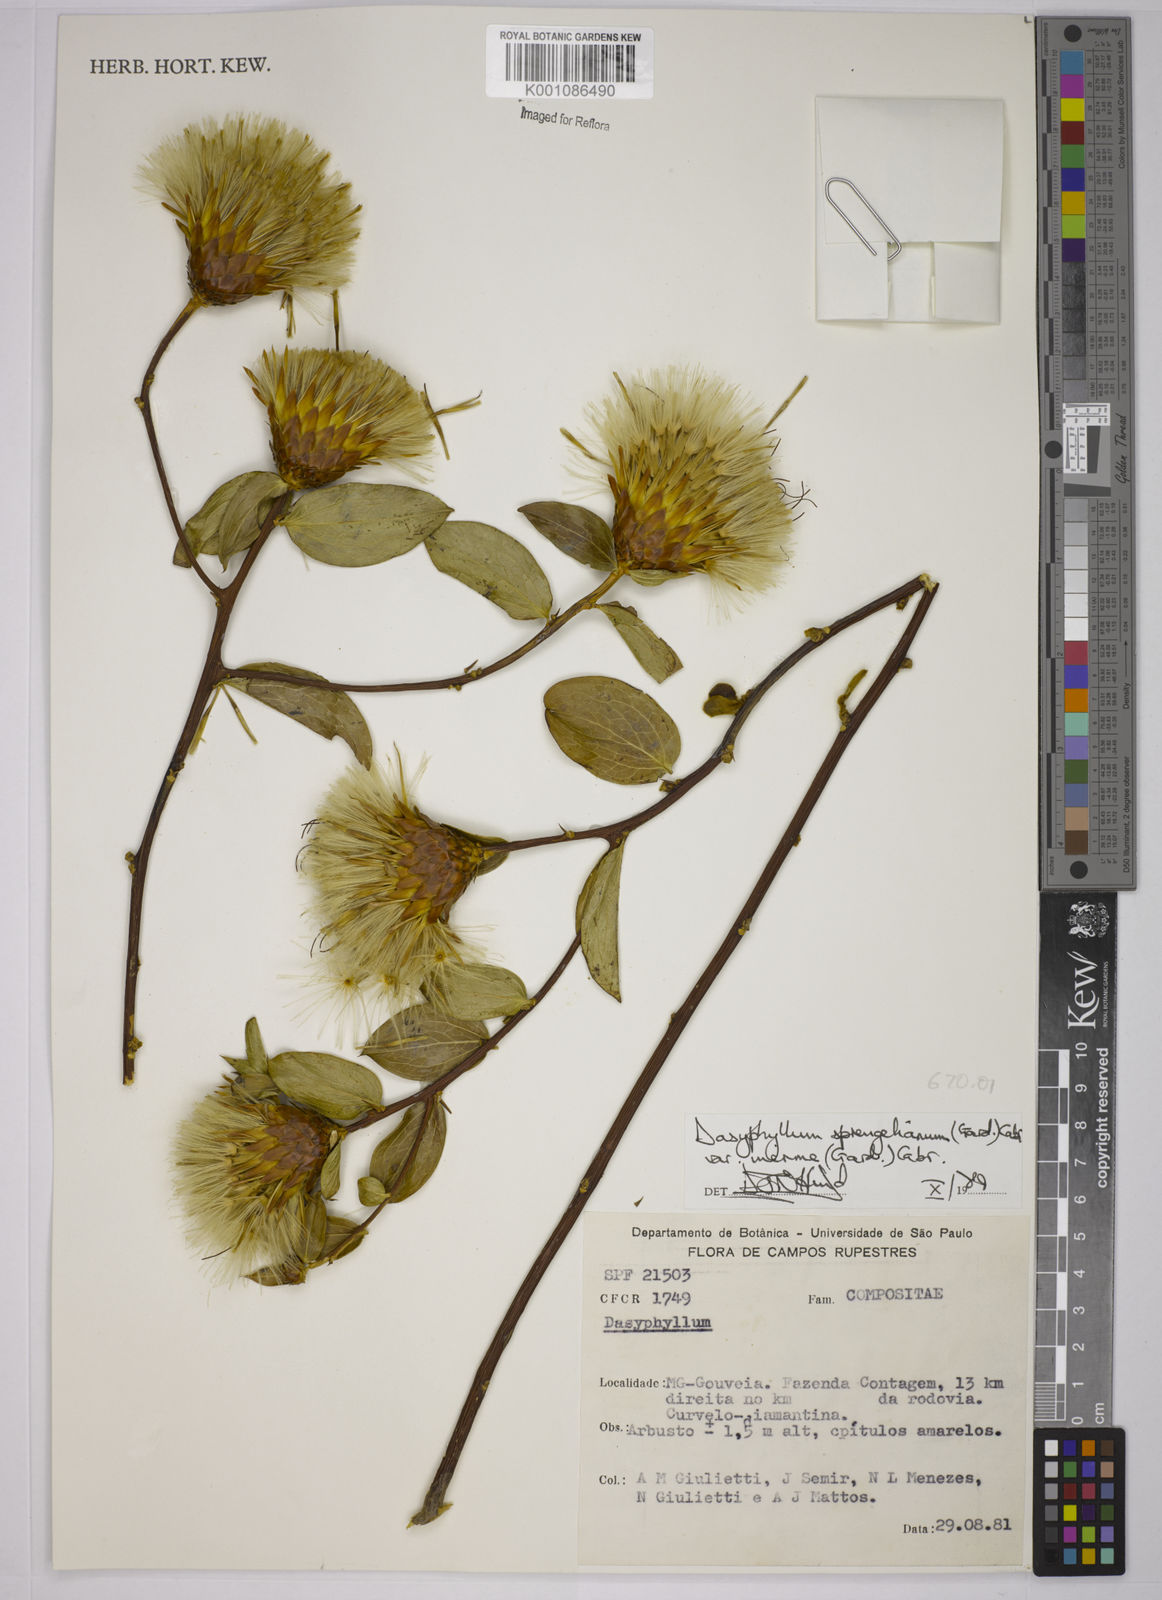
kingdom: Plantae
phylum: Tracheophyta
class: Magnoliopsida
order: Asterales
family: Asteraceae
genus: Dasyphyllum
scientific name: Dasyphyllum sprengelianum
